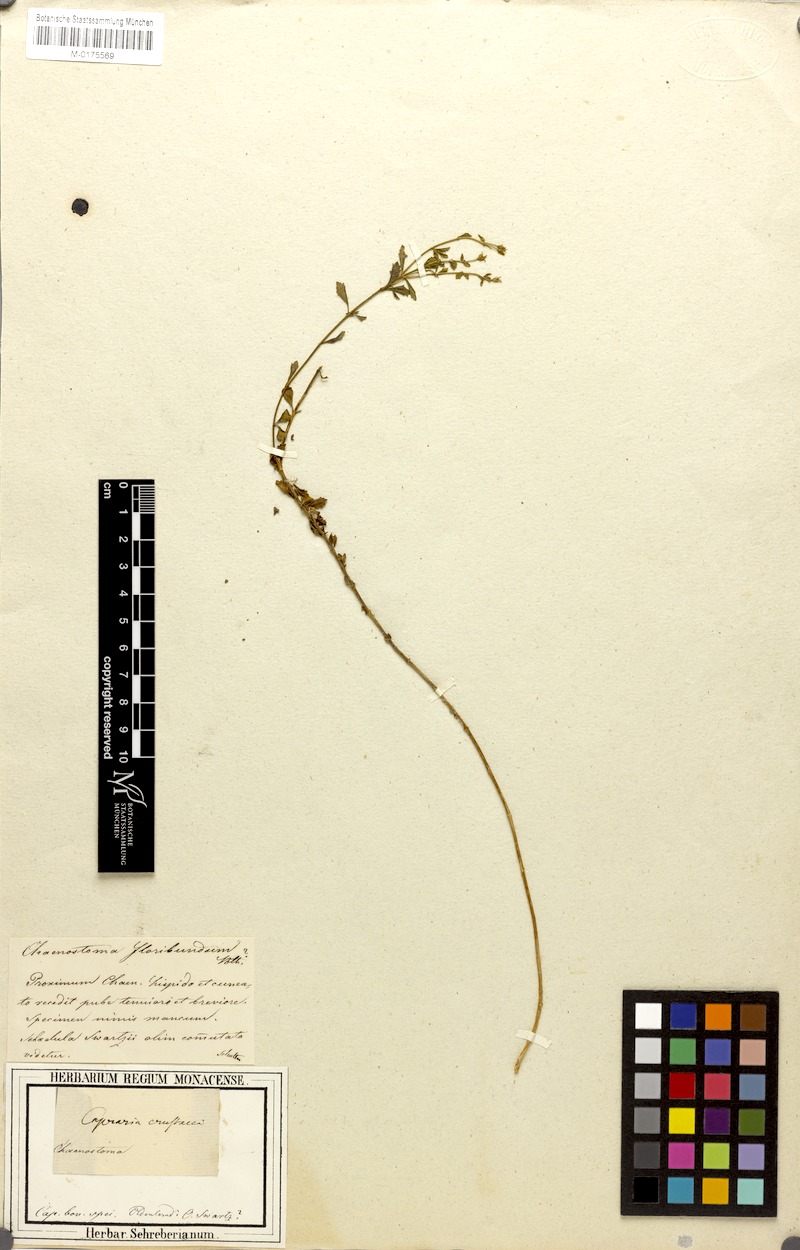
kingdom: Plantae
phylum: Tracheophyta
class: Magnoliopsida
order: Lamiales
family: Scrophulariaceae
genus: Chaenostoma
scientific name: Chaenostoma aethiopicum
